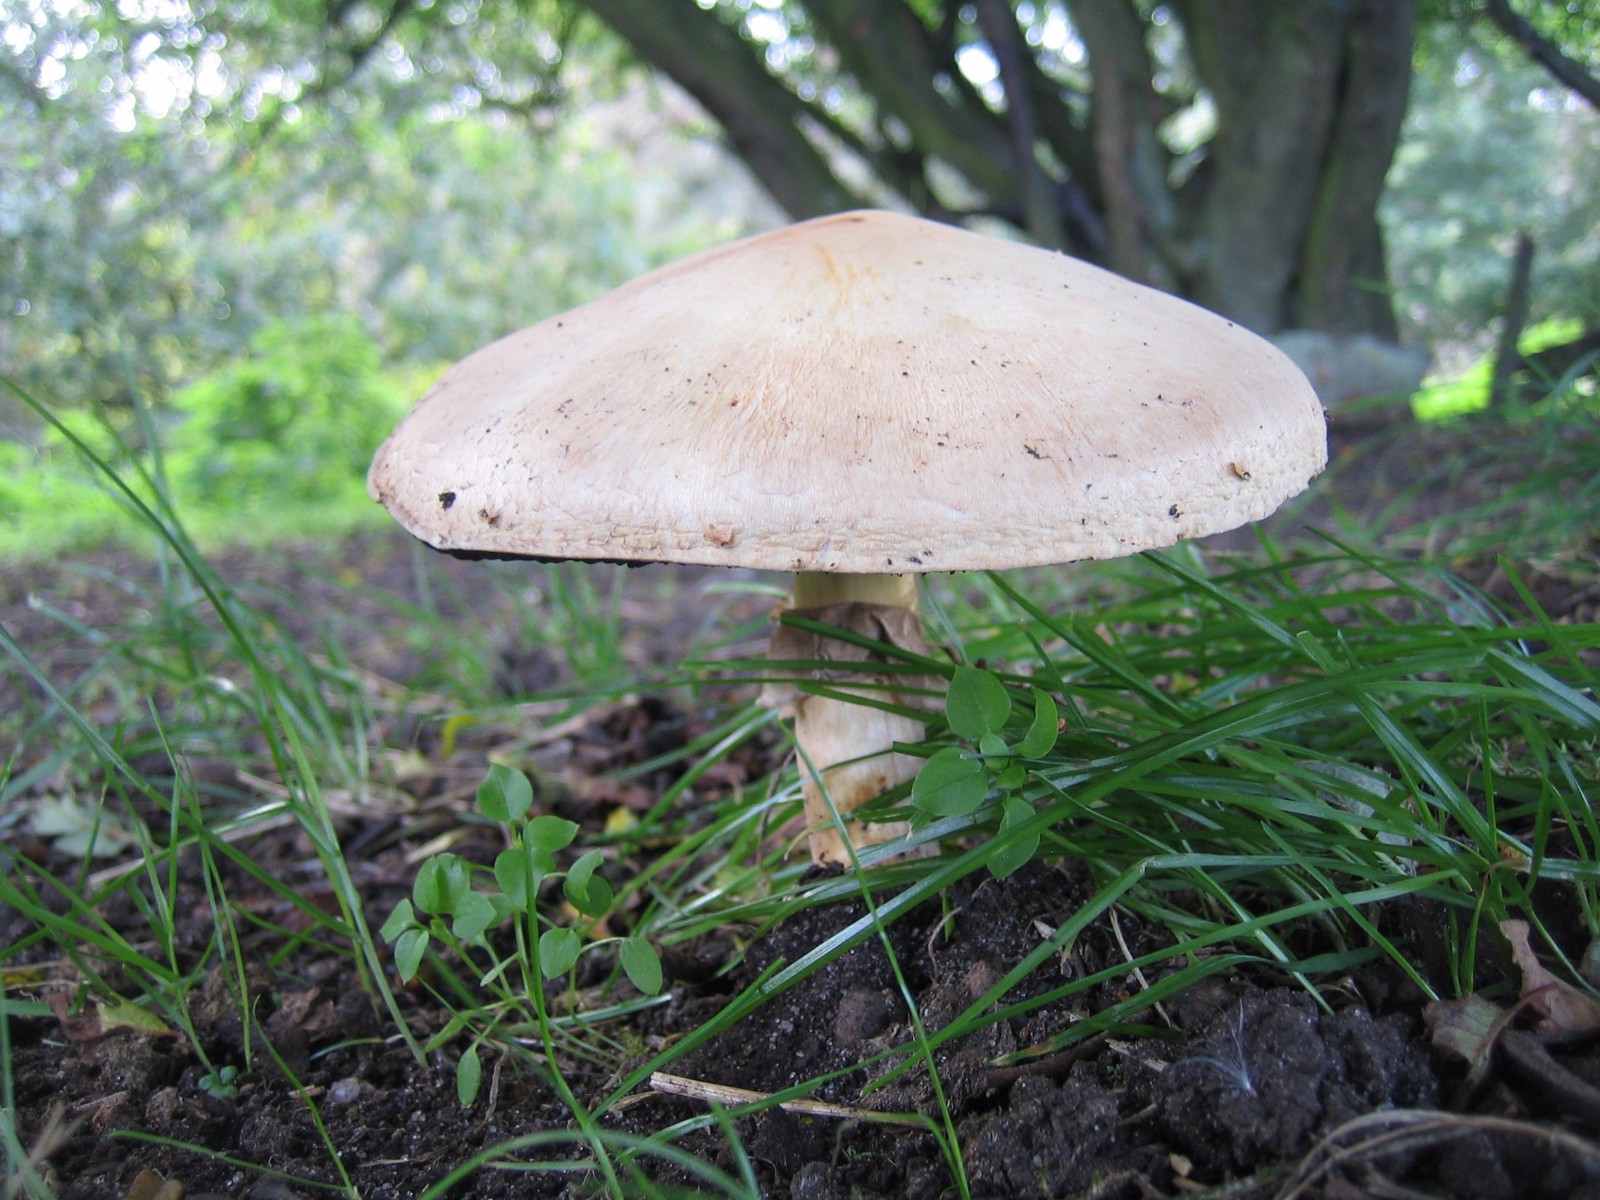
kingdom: Fungi
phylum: Basidiomycota
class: Agaricomycetes
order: Agaricales
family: Agaricaceae
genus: Agaricus
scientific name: Agaricus
